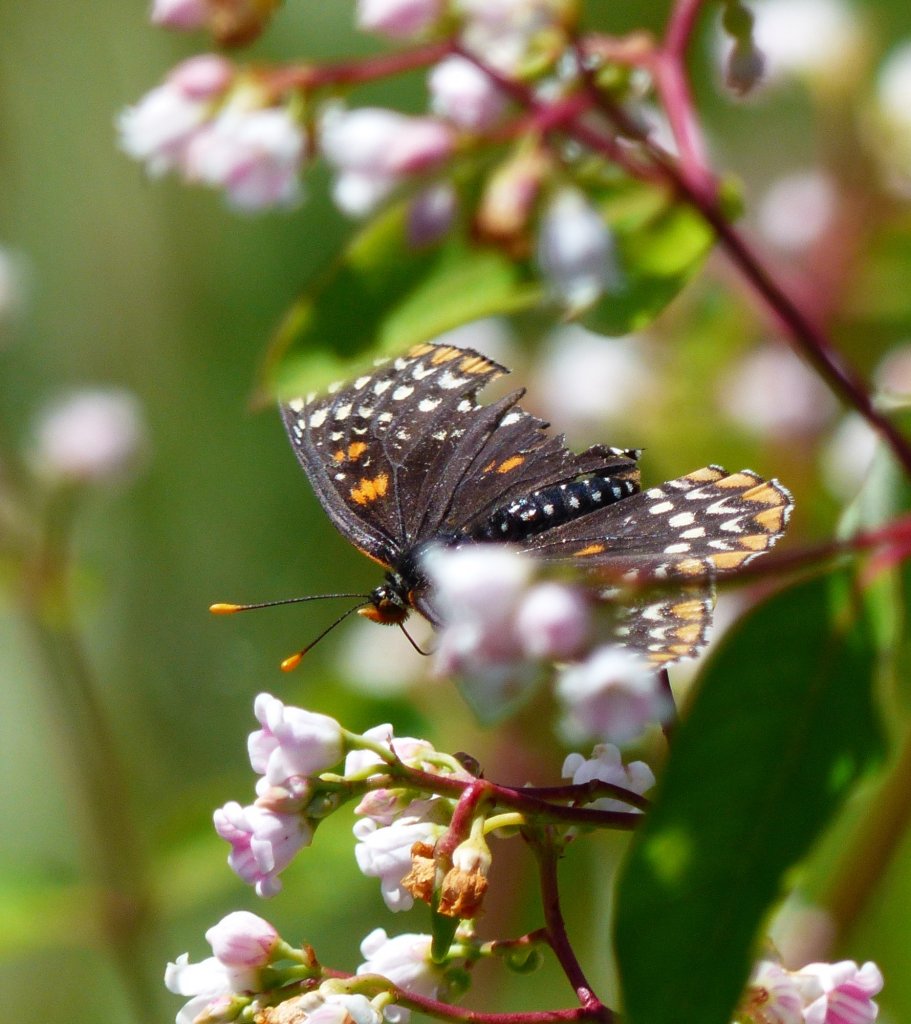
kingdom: Animalia
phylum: Arthropoda
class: Insecta
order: Lepidoptera
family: Nymphalidae
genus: Euphydryas
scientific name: Euphydryas phaeton
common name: Baltimore Checkerspot
